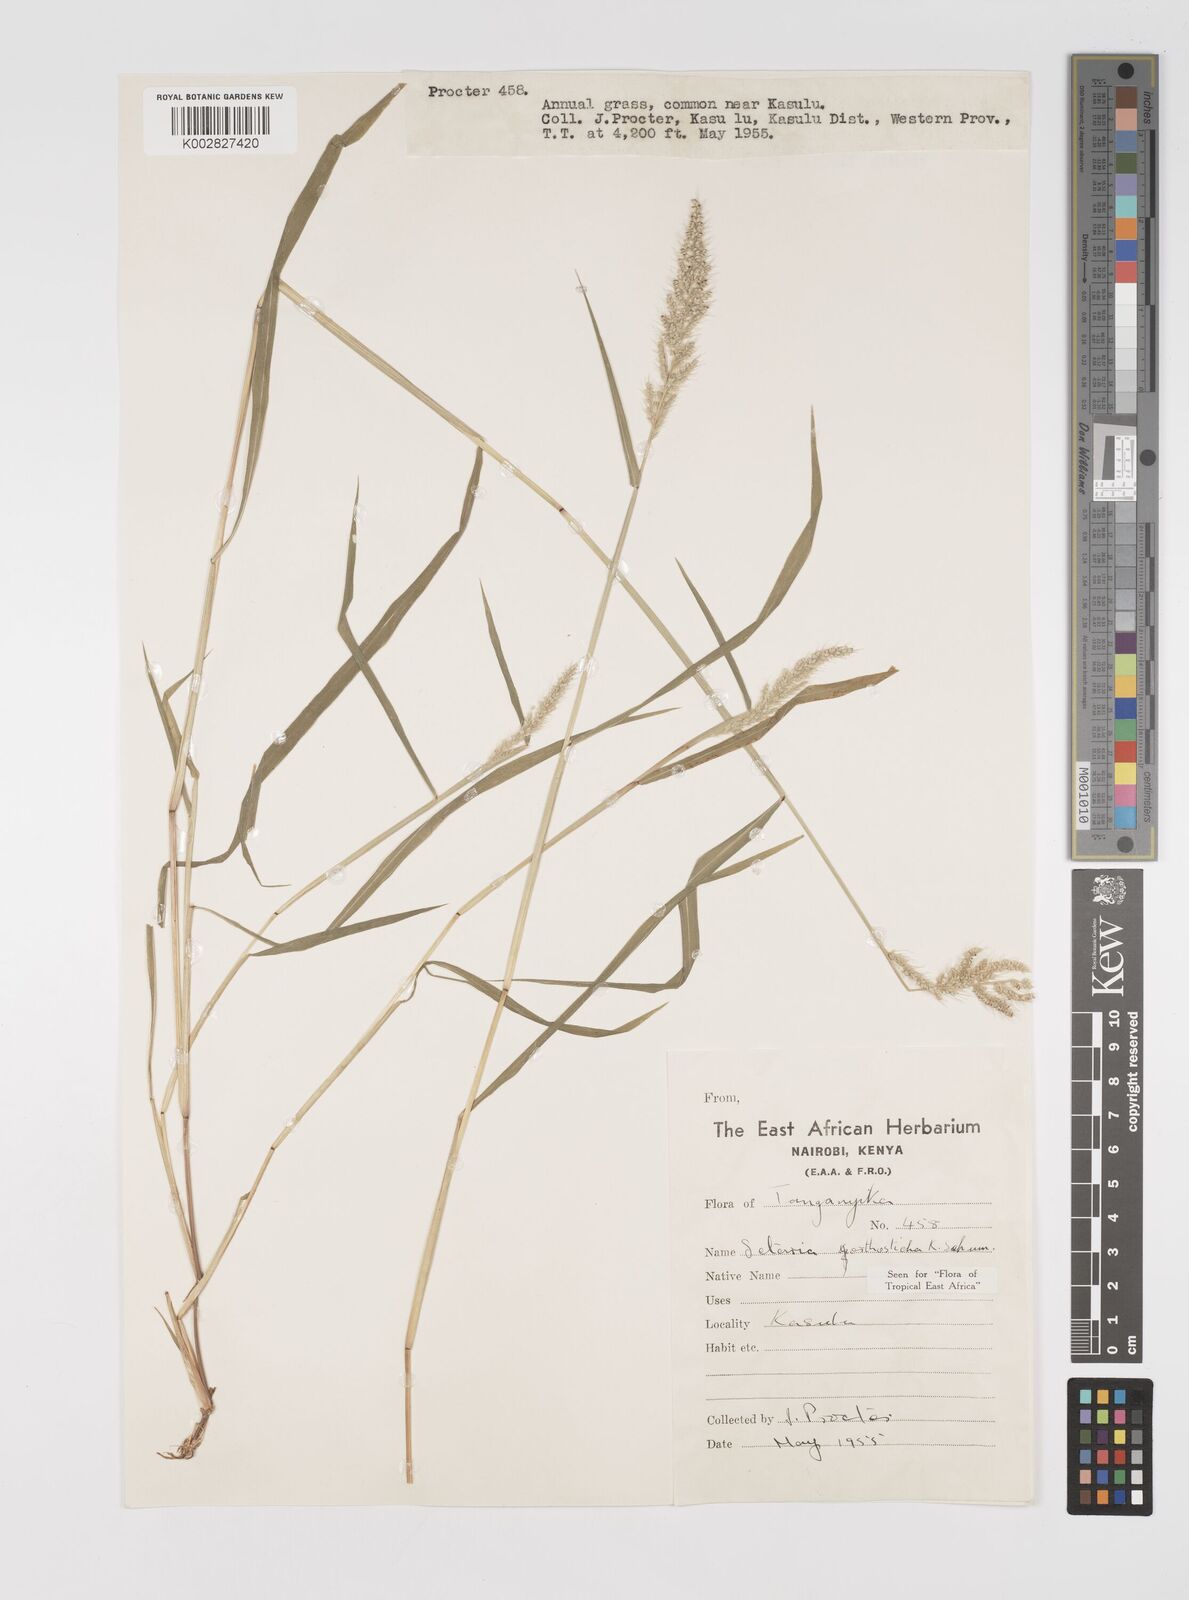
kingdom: Plantae
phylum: Tracheophyta
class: Liliopsida
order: Poales
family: Poaceae
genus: Setaria
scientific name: Setaria orthosticha
